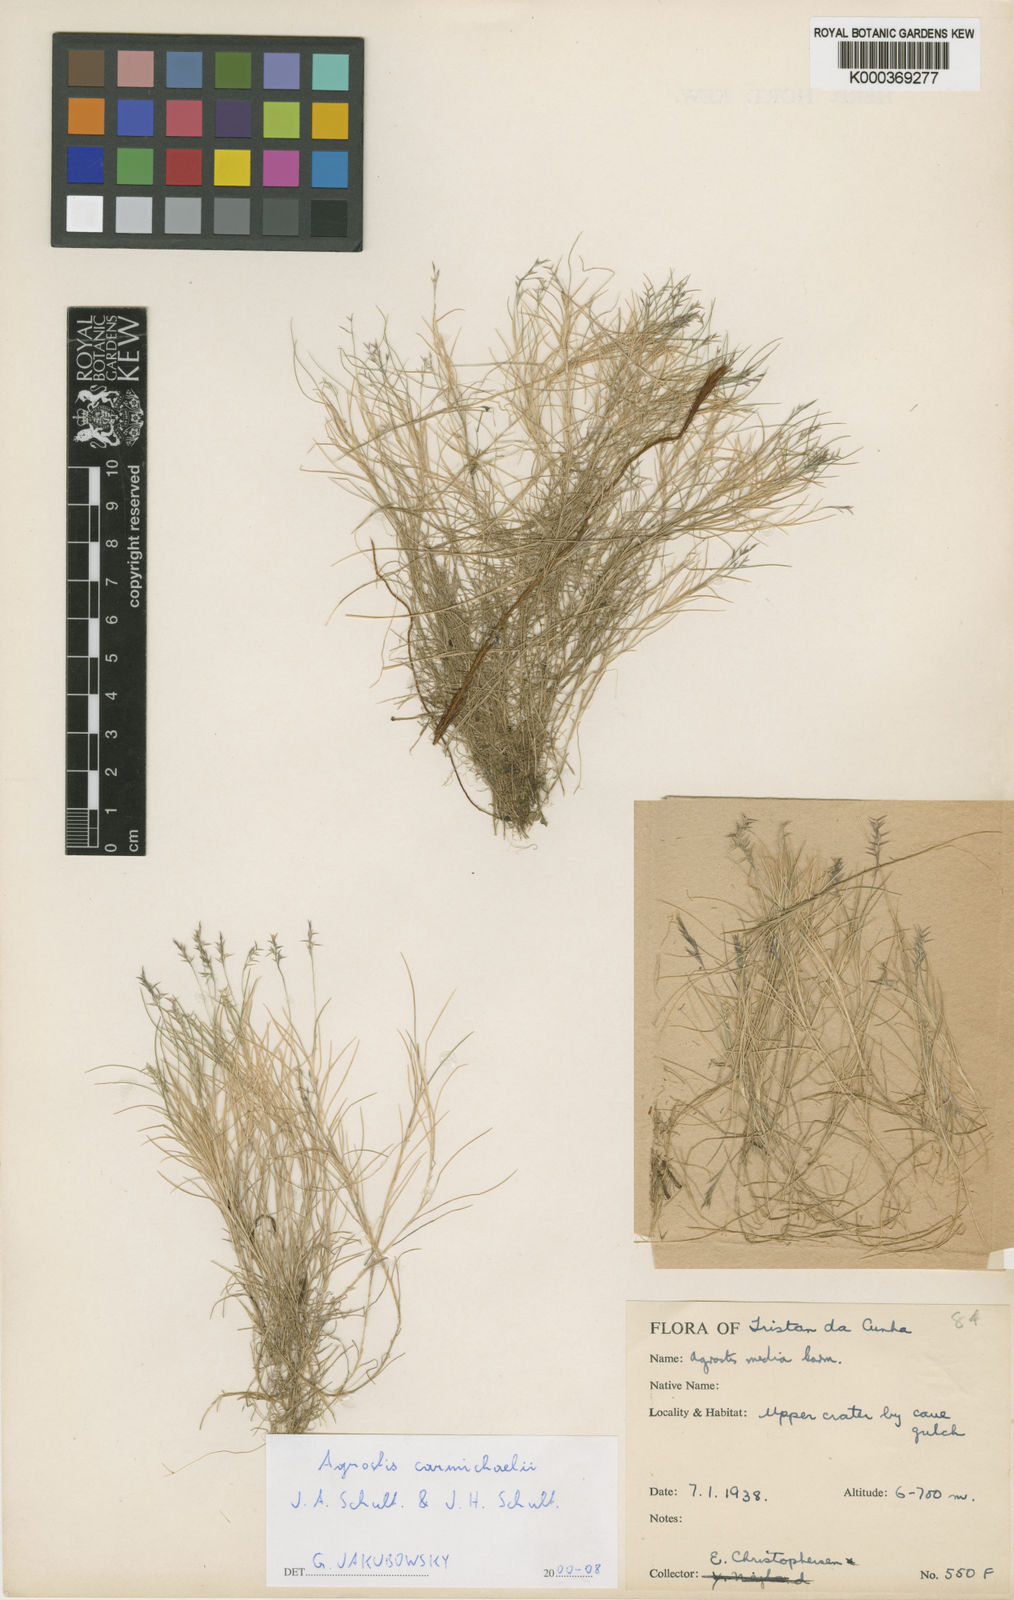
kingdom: Plantae
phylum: Tracheophyta
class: Liliopsida
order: Poales
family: Poaceae
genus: Agrostis
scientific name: Agrostis carmichaelii
